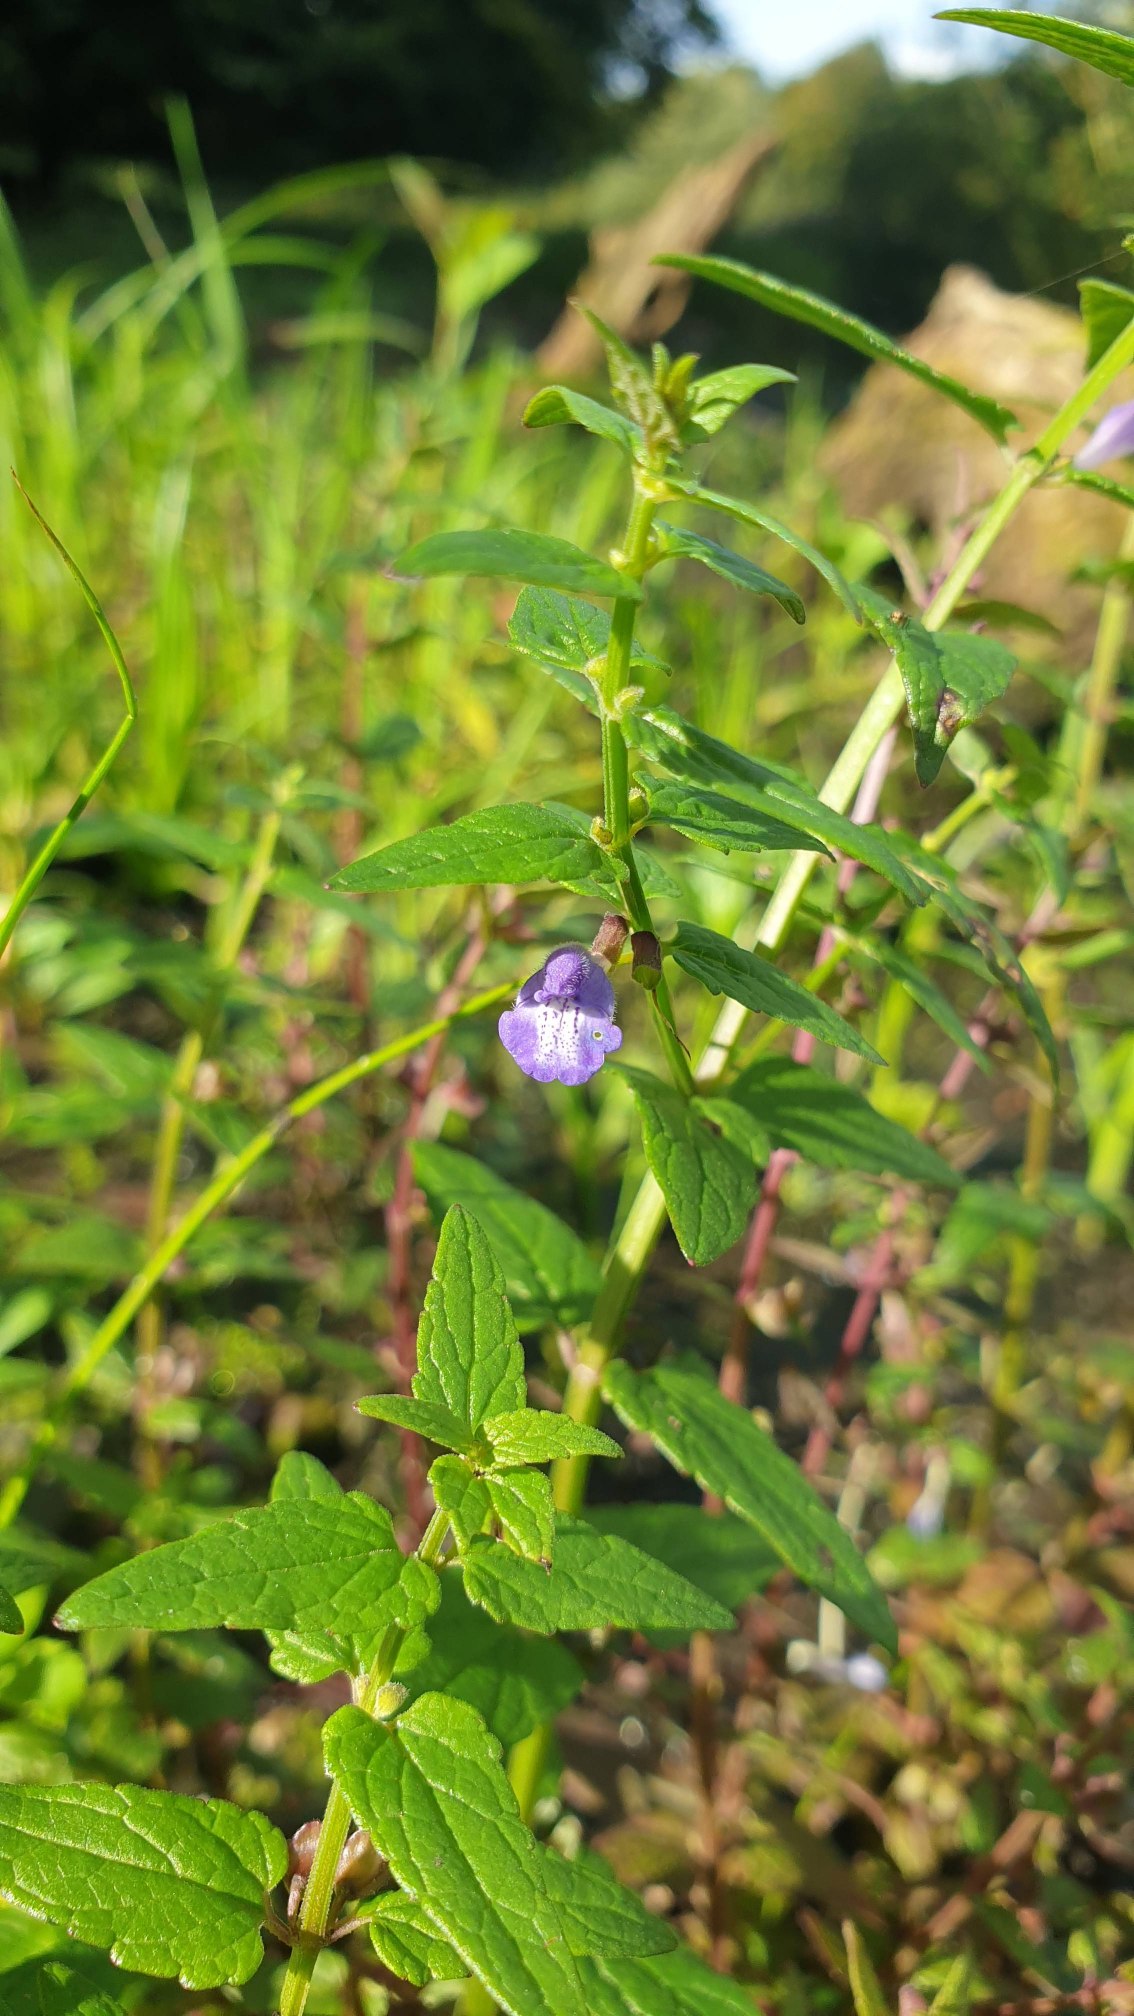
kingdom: Plantae
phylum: Tracheophyta
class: Magnoliopsida
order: Lamiales
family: Lamiaceae
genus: Scutellaria
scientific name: Scutellaria galericulata
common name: Almindelig skjolddrager
